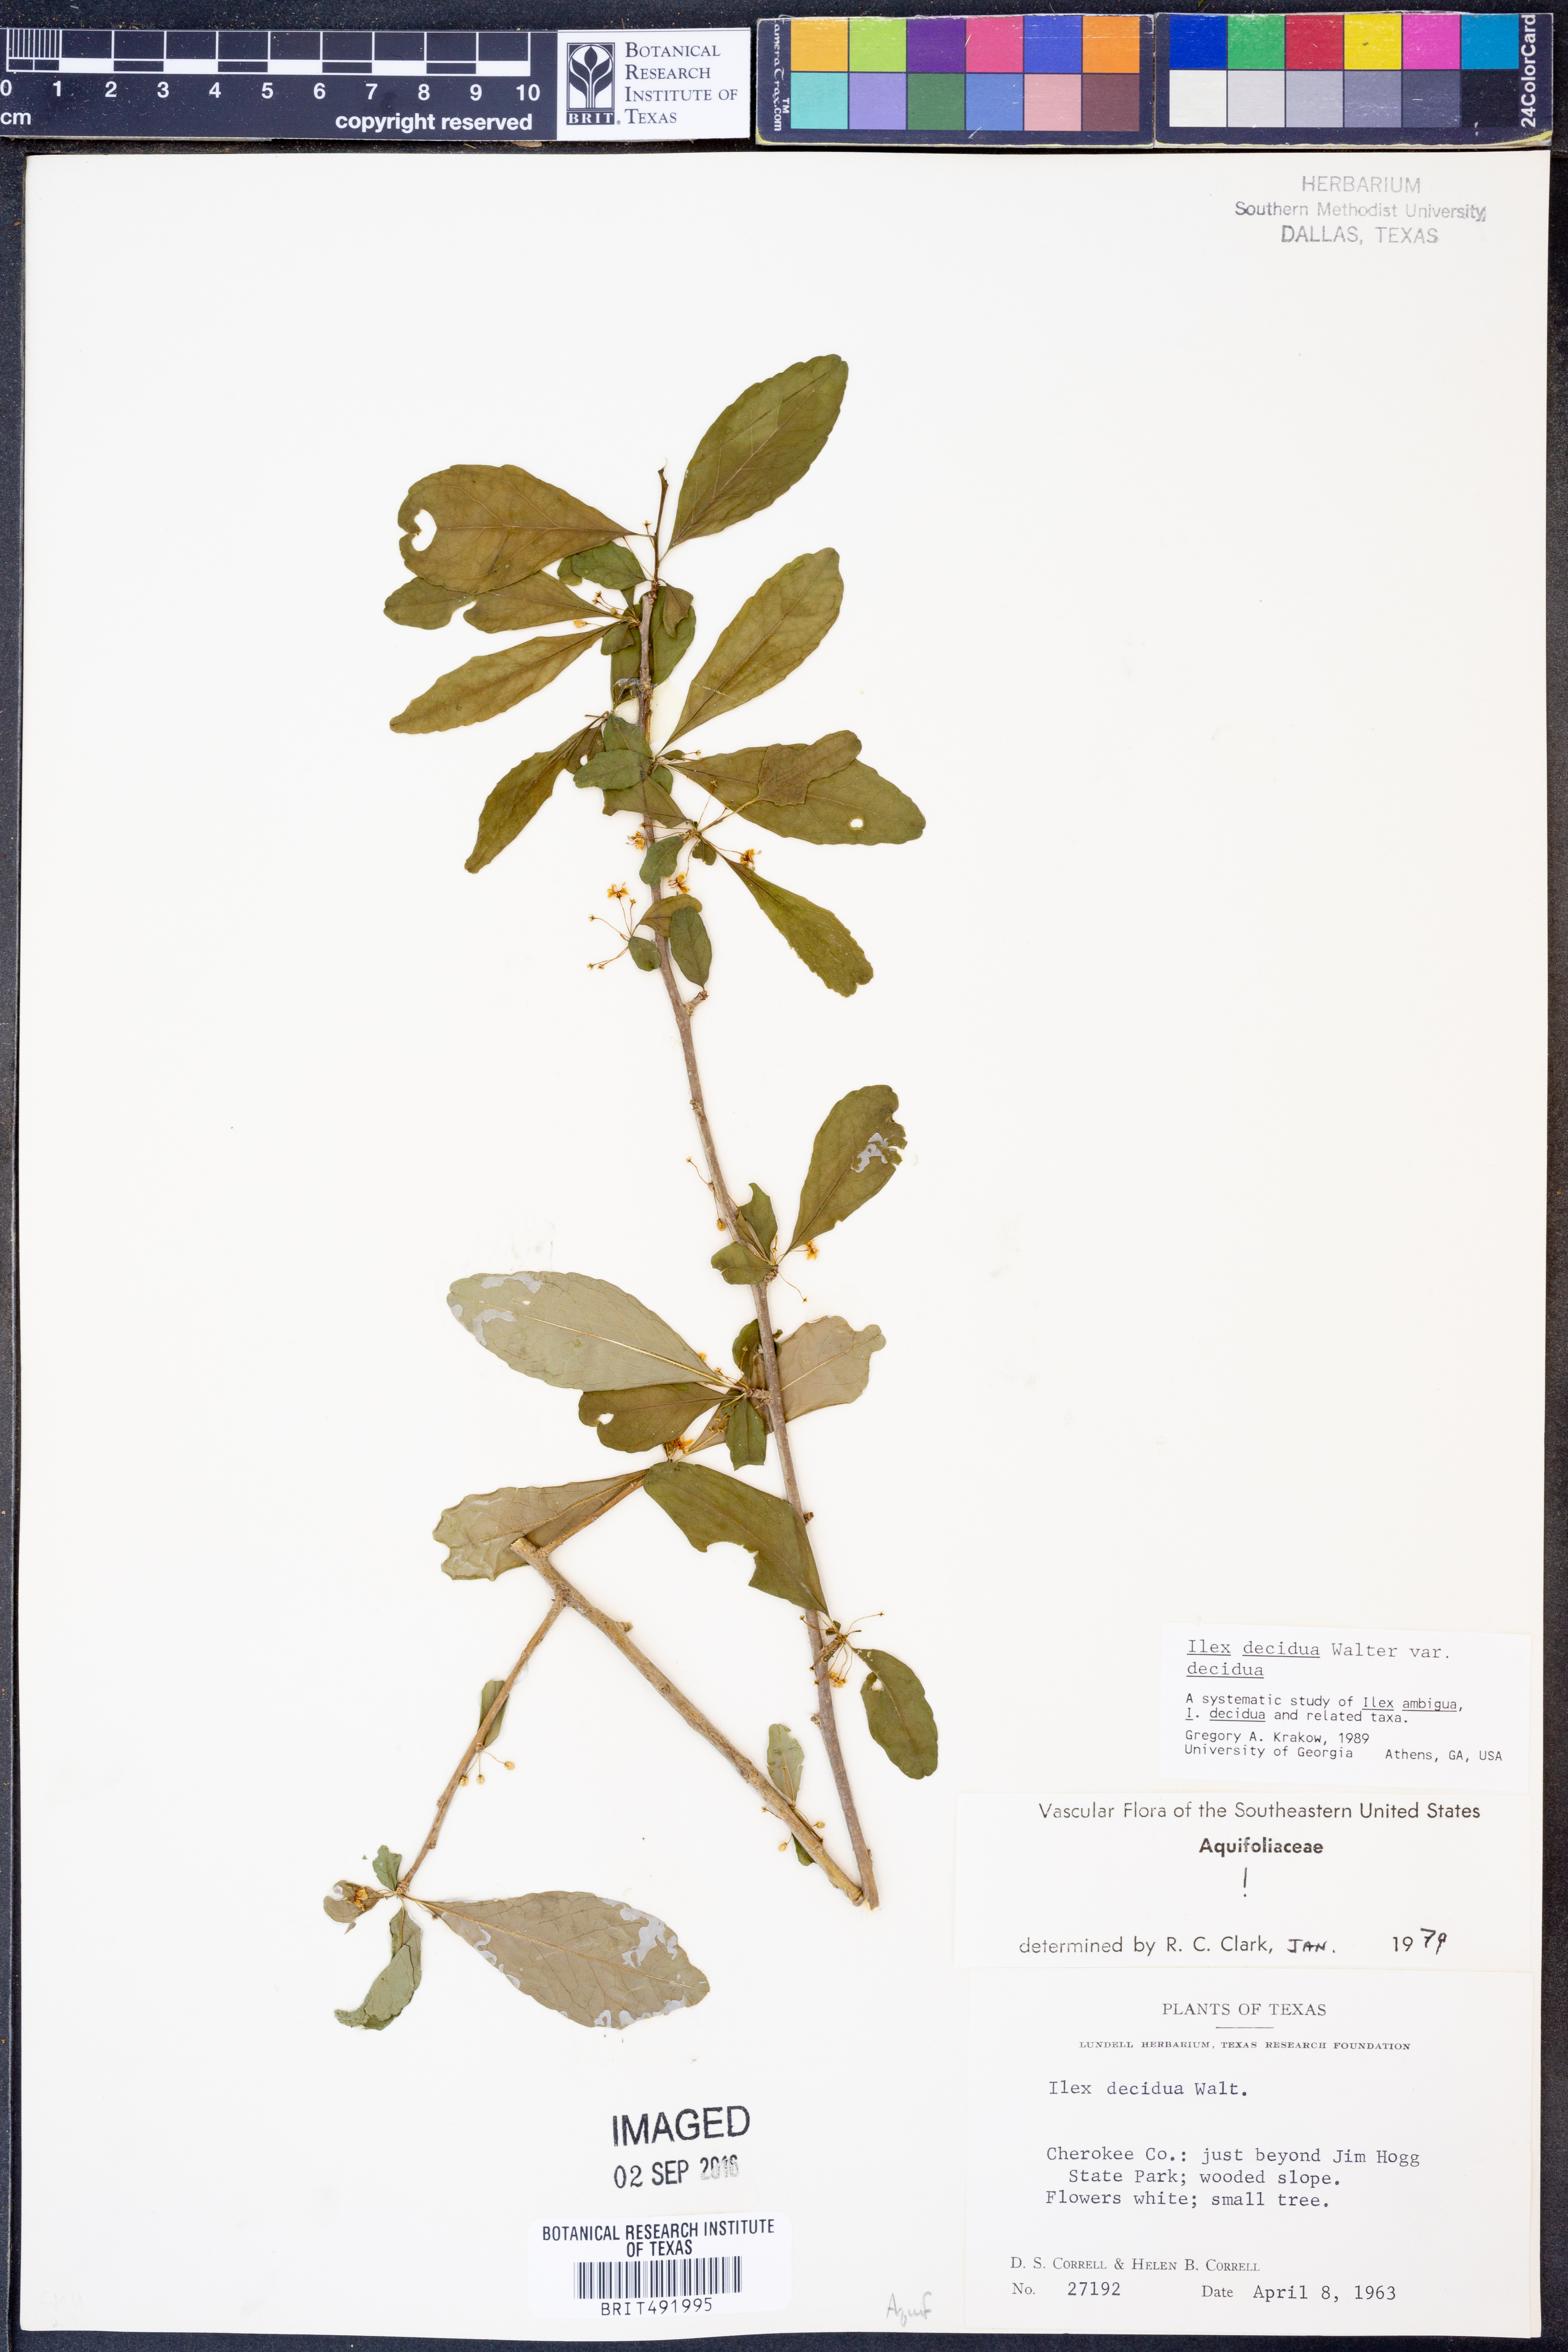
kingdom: Plantae
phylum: Tracheophyta
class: Magnoliopsida
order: Aquifoliales
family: Aquifoliaceae
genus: Ilex
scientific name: Ilex decidua
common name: Possum-haw
